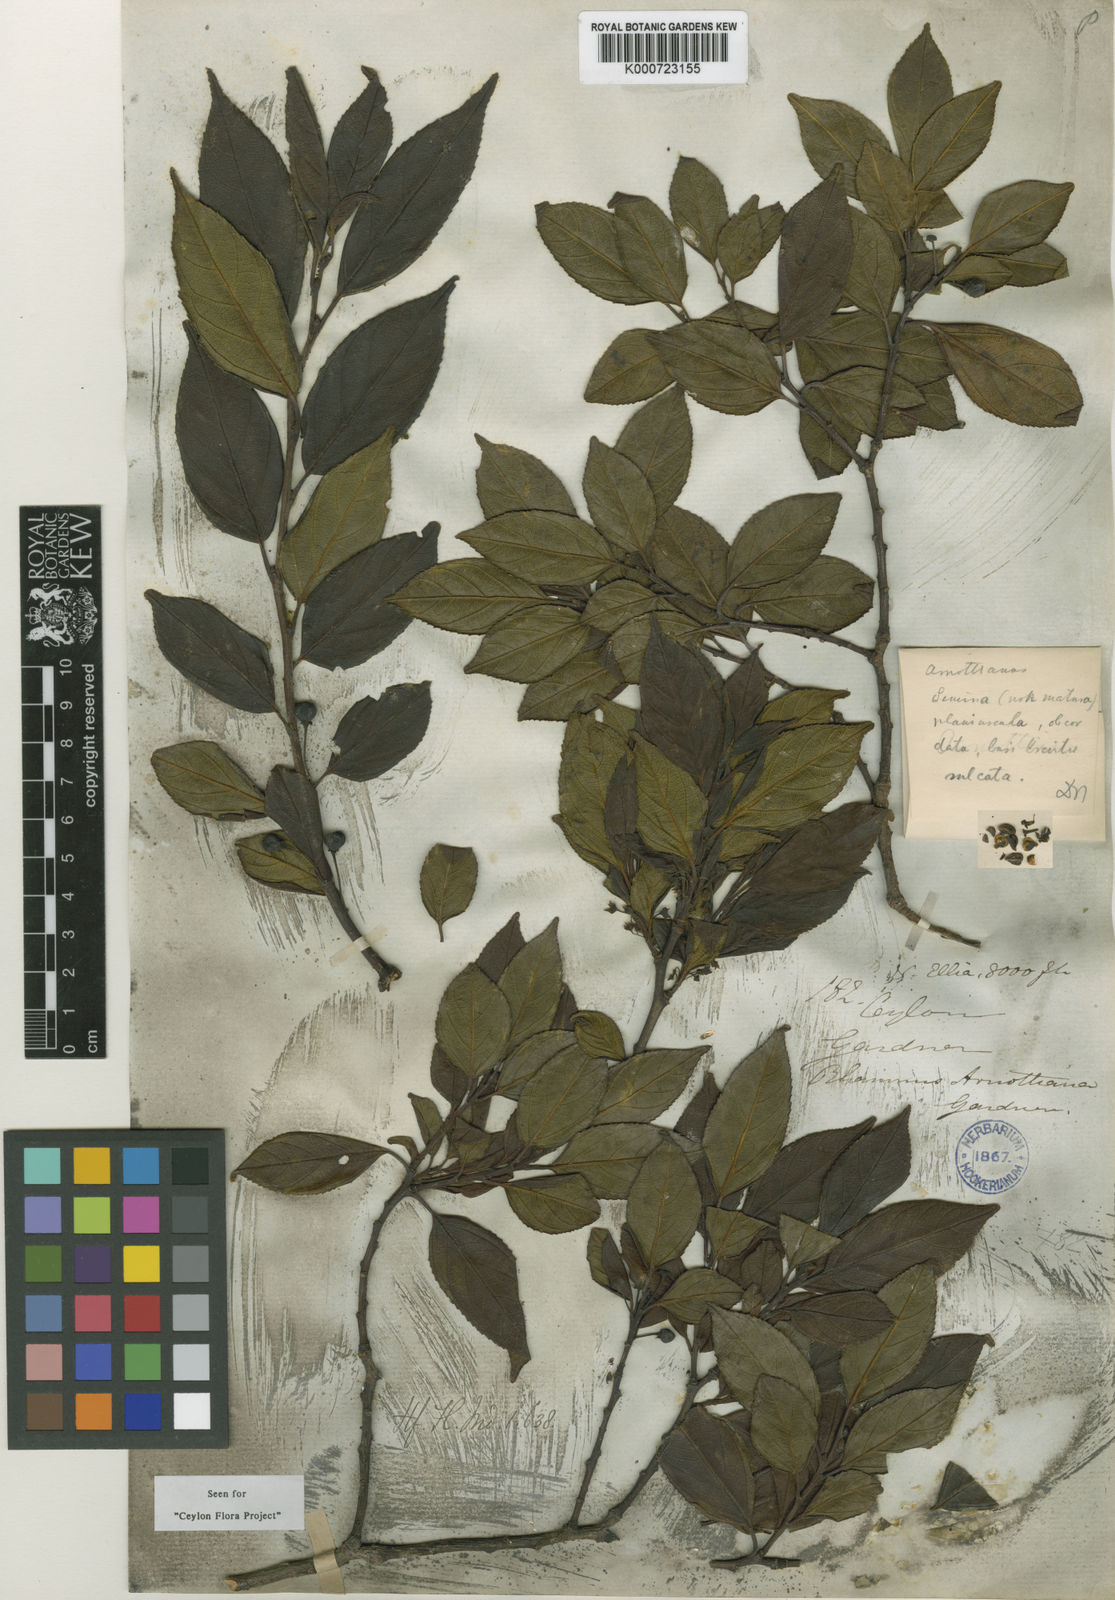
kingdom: Plantae
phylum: Tracheophyta
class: Magnoliopsida
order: Rosales
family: Rhamnaceae
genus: Rhamnus
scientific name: Rhamnus arnottiana
